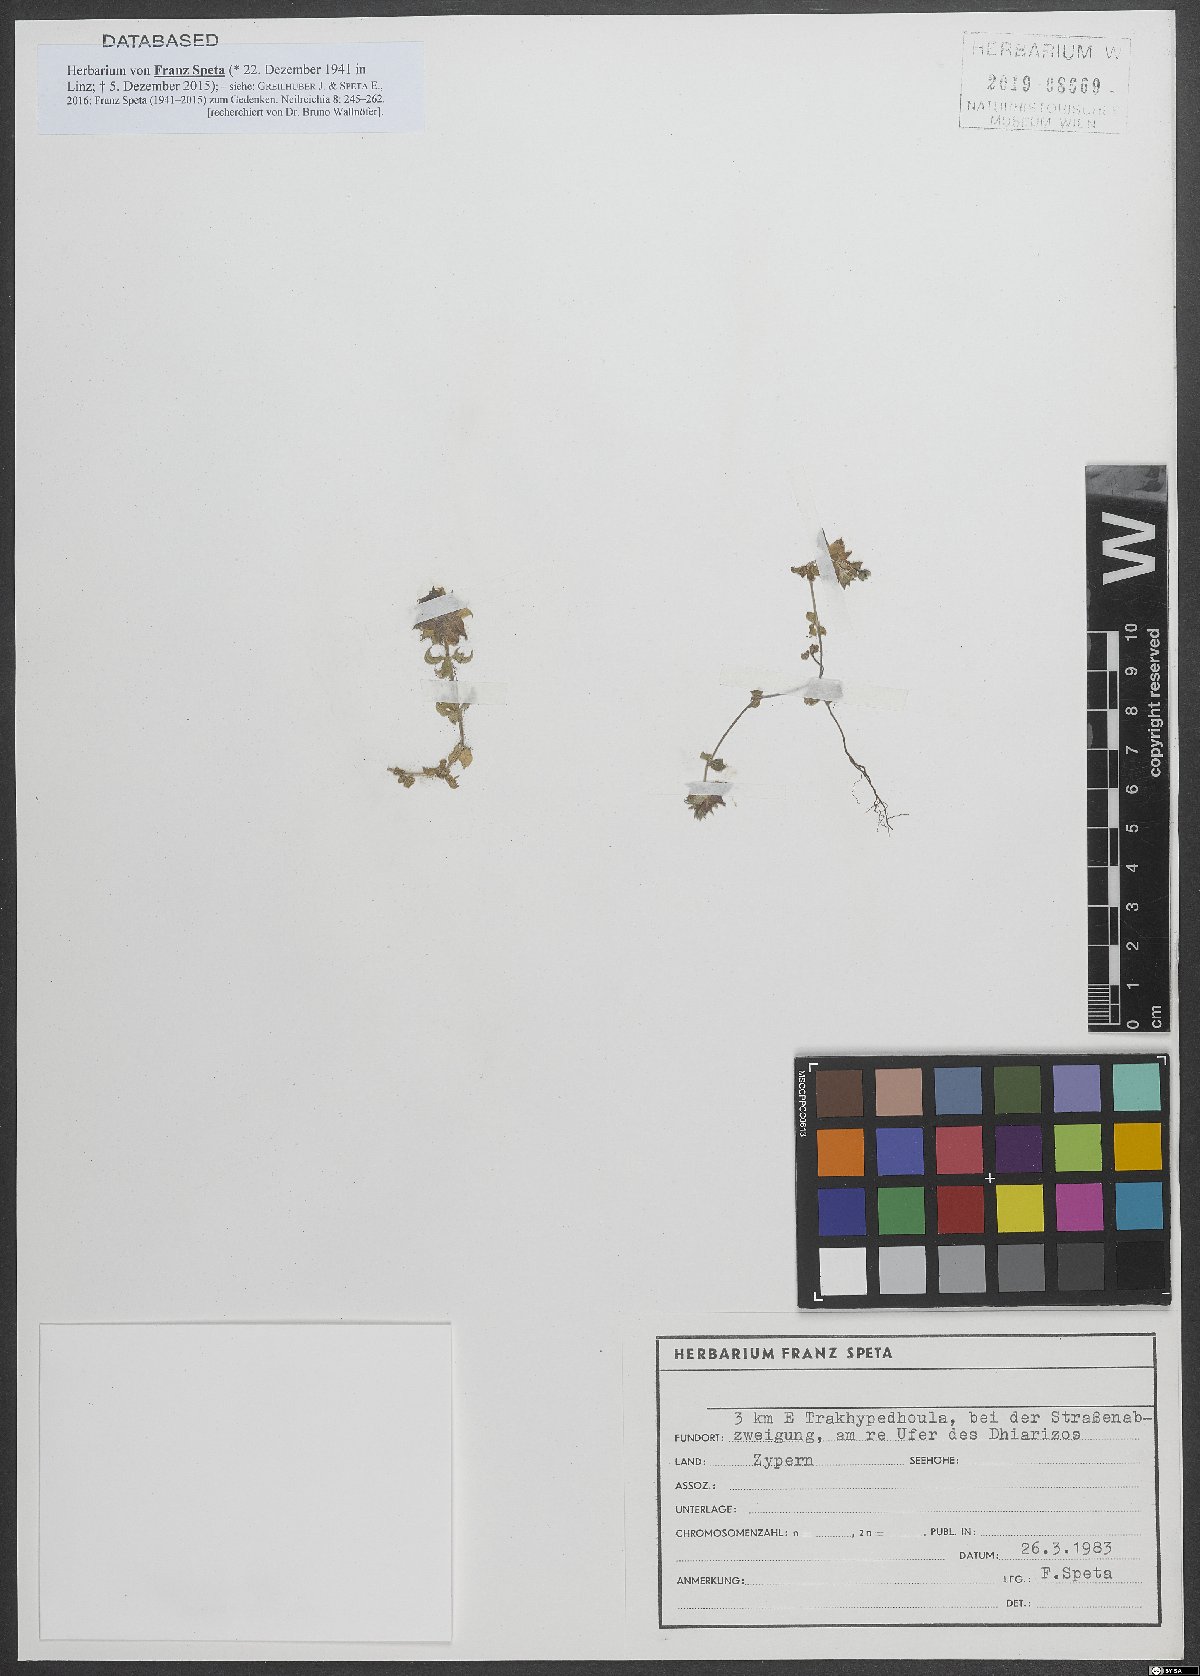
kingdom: Plantae
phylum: Tracheophyta
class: Magnoliopsida
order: Gentianales
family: Rubiaceae
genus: Sherardia
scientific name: Sherardia
